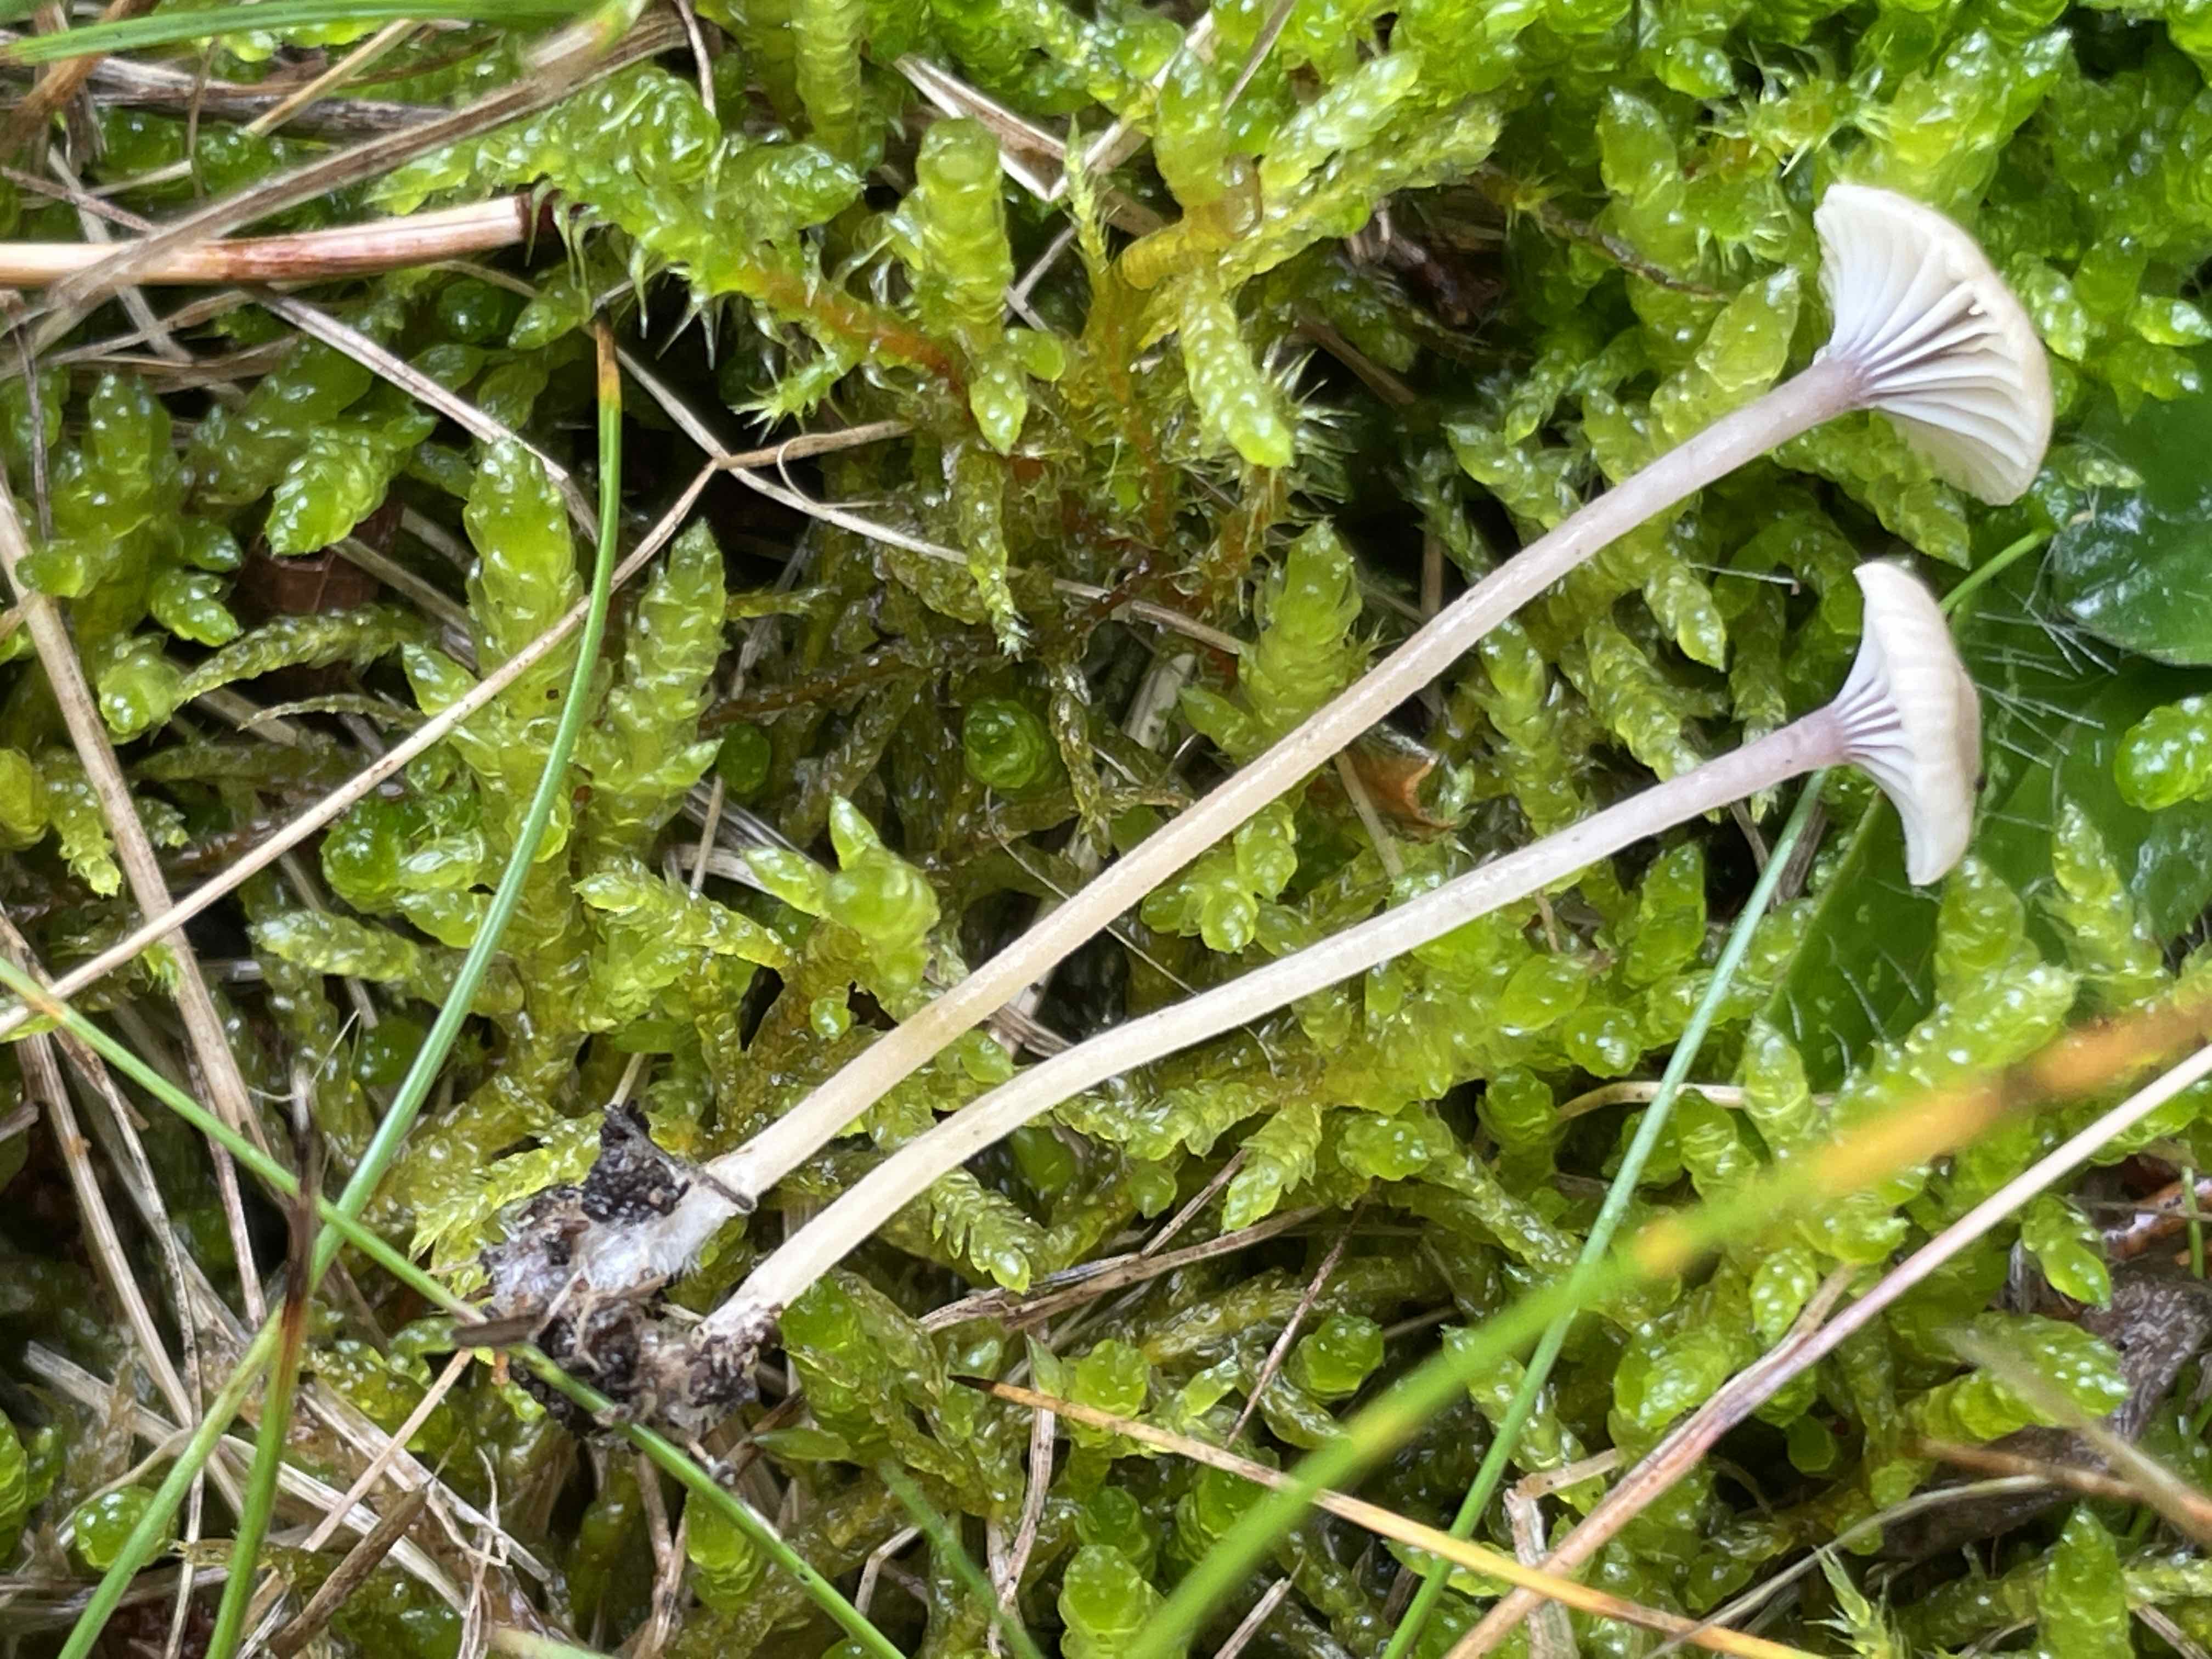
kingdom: Fungi
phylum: Basidiomycota
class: Agaricomycetes
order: Hymenochaetales
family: Rickenellaceae
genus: Rickenella
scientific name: Rickenella swartzii
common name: finstokket mosnavlehat
